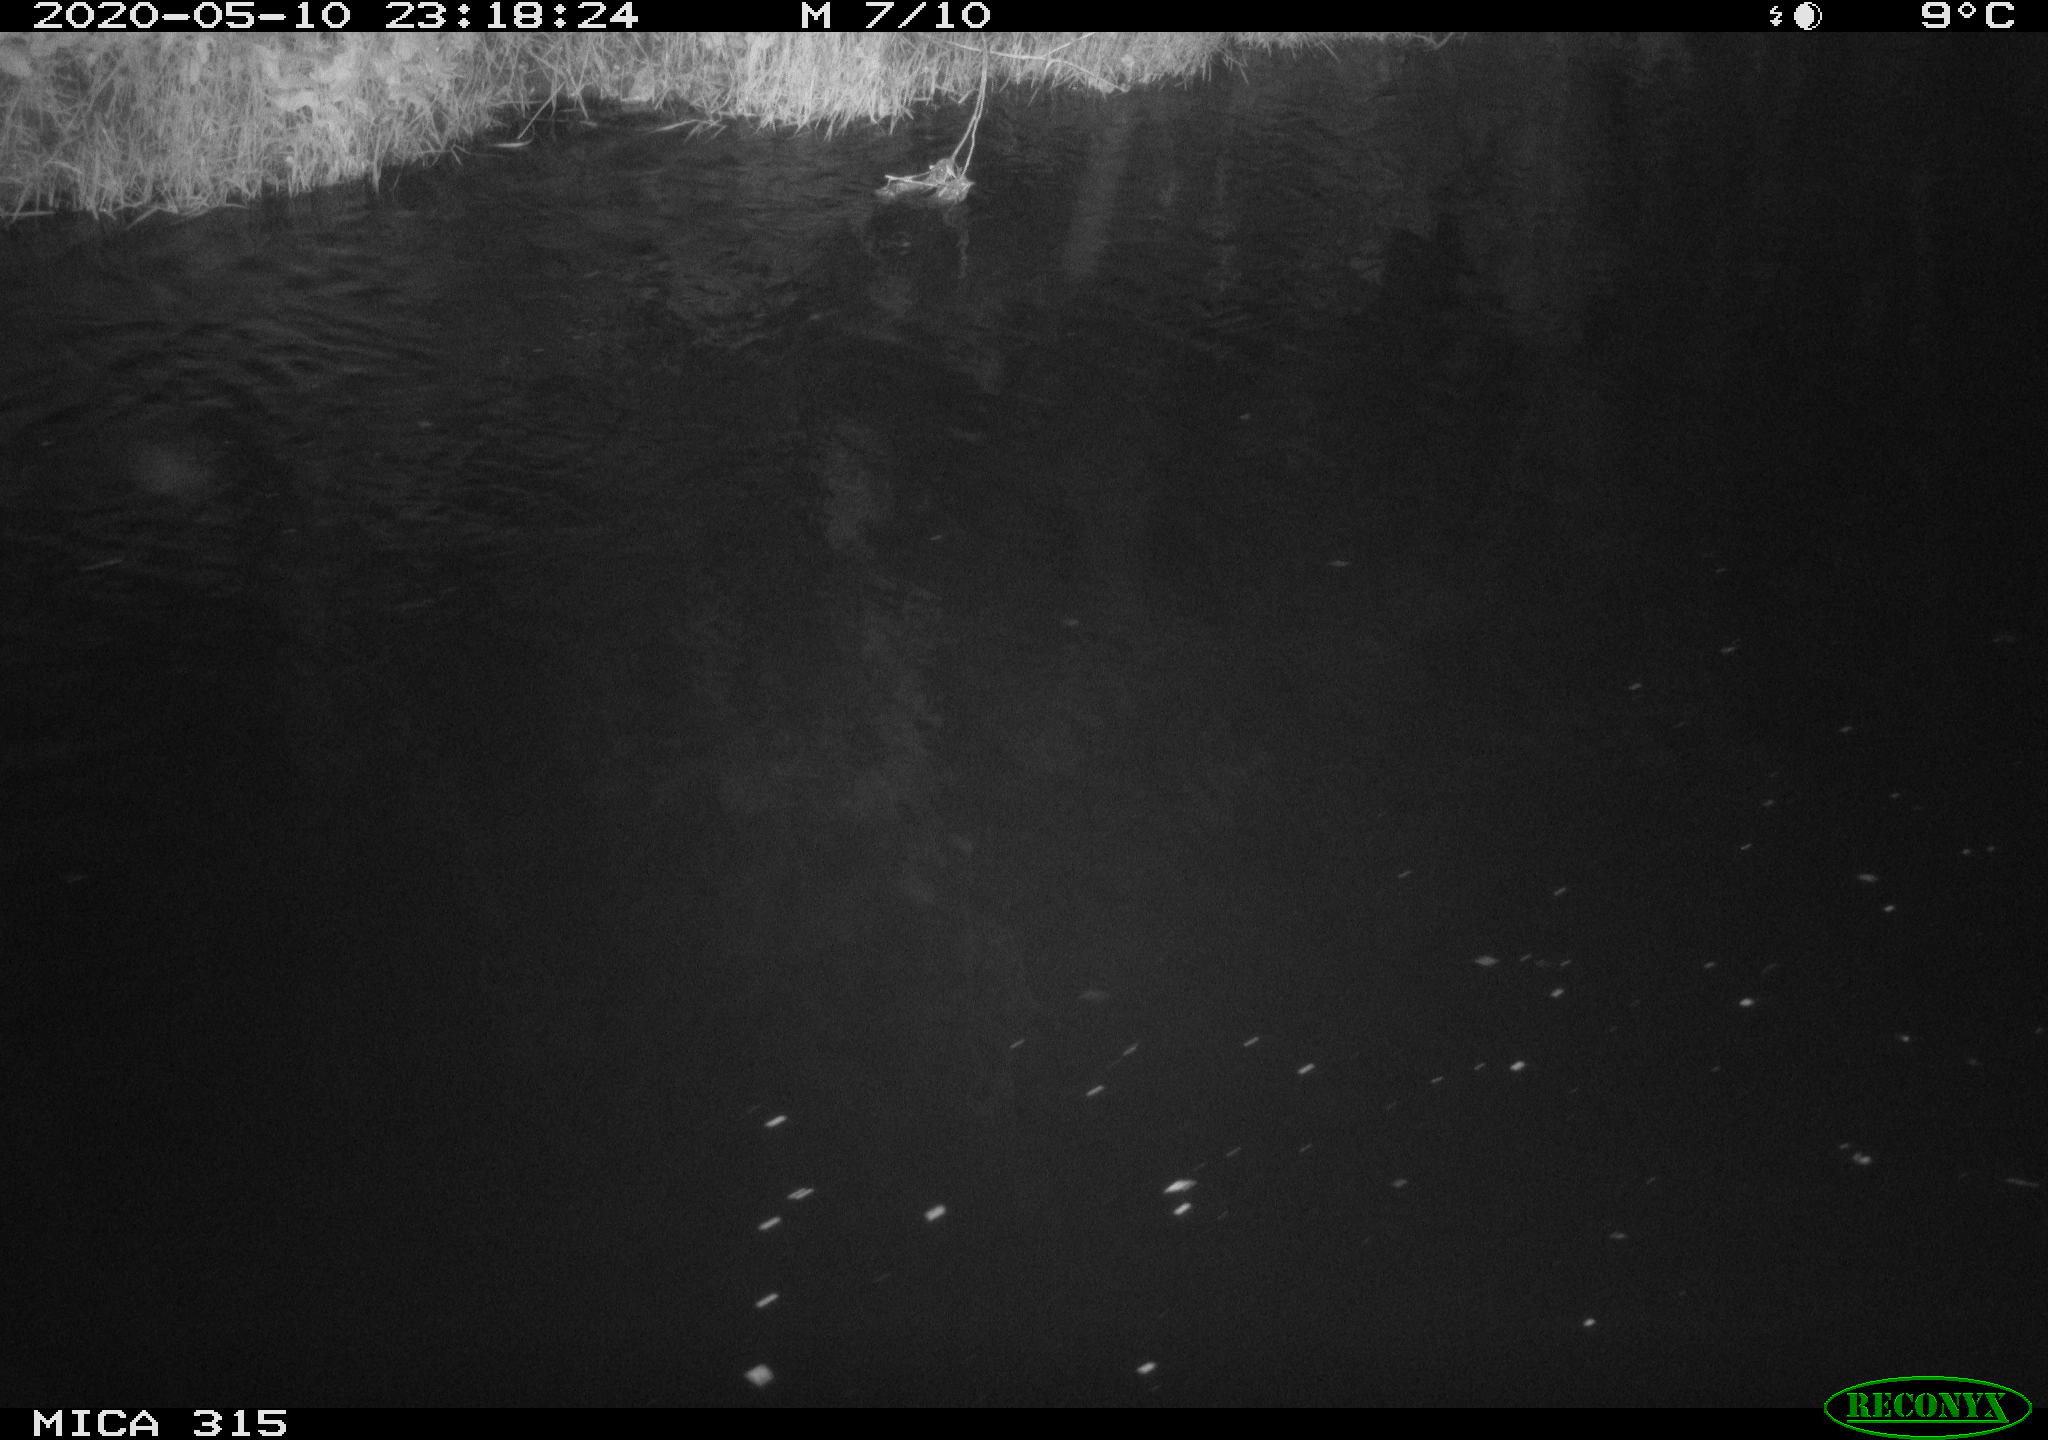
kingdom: Animalia
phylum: Chordata
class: Aves
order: Anseriformes
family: Anatidae
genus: Anas
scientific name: Anas platyrhynchos
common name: Mallard
